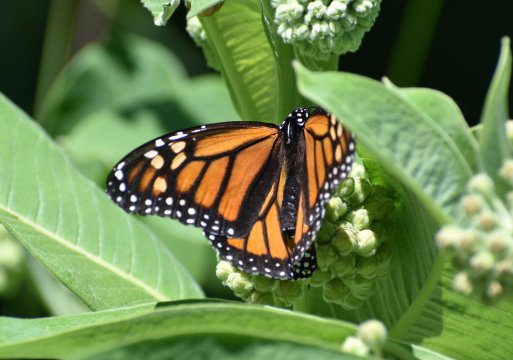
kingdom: Animalia
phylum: Arthropoda
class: Insecta
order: Lepidoptera
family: Nymphalidae
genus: Danaus
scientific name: Danaus plexippus
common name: Monarch
